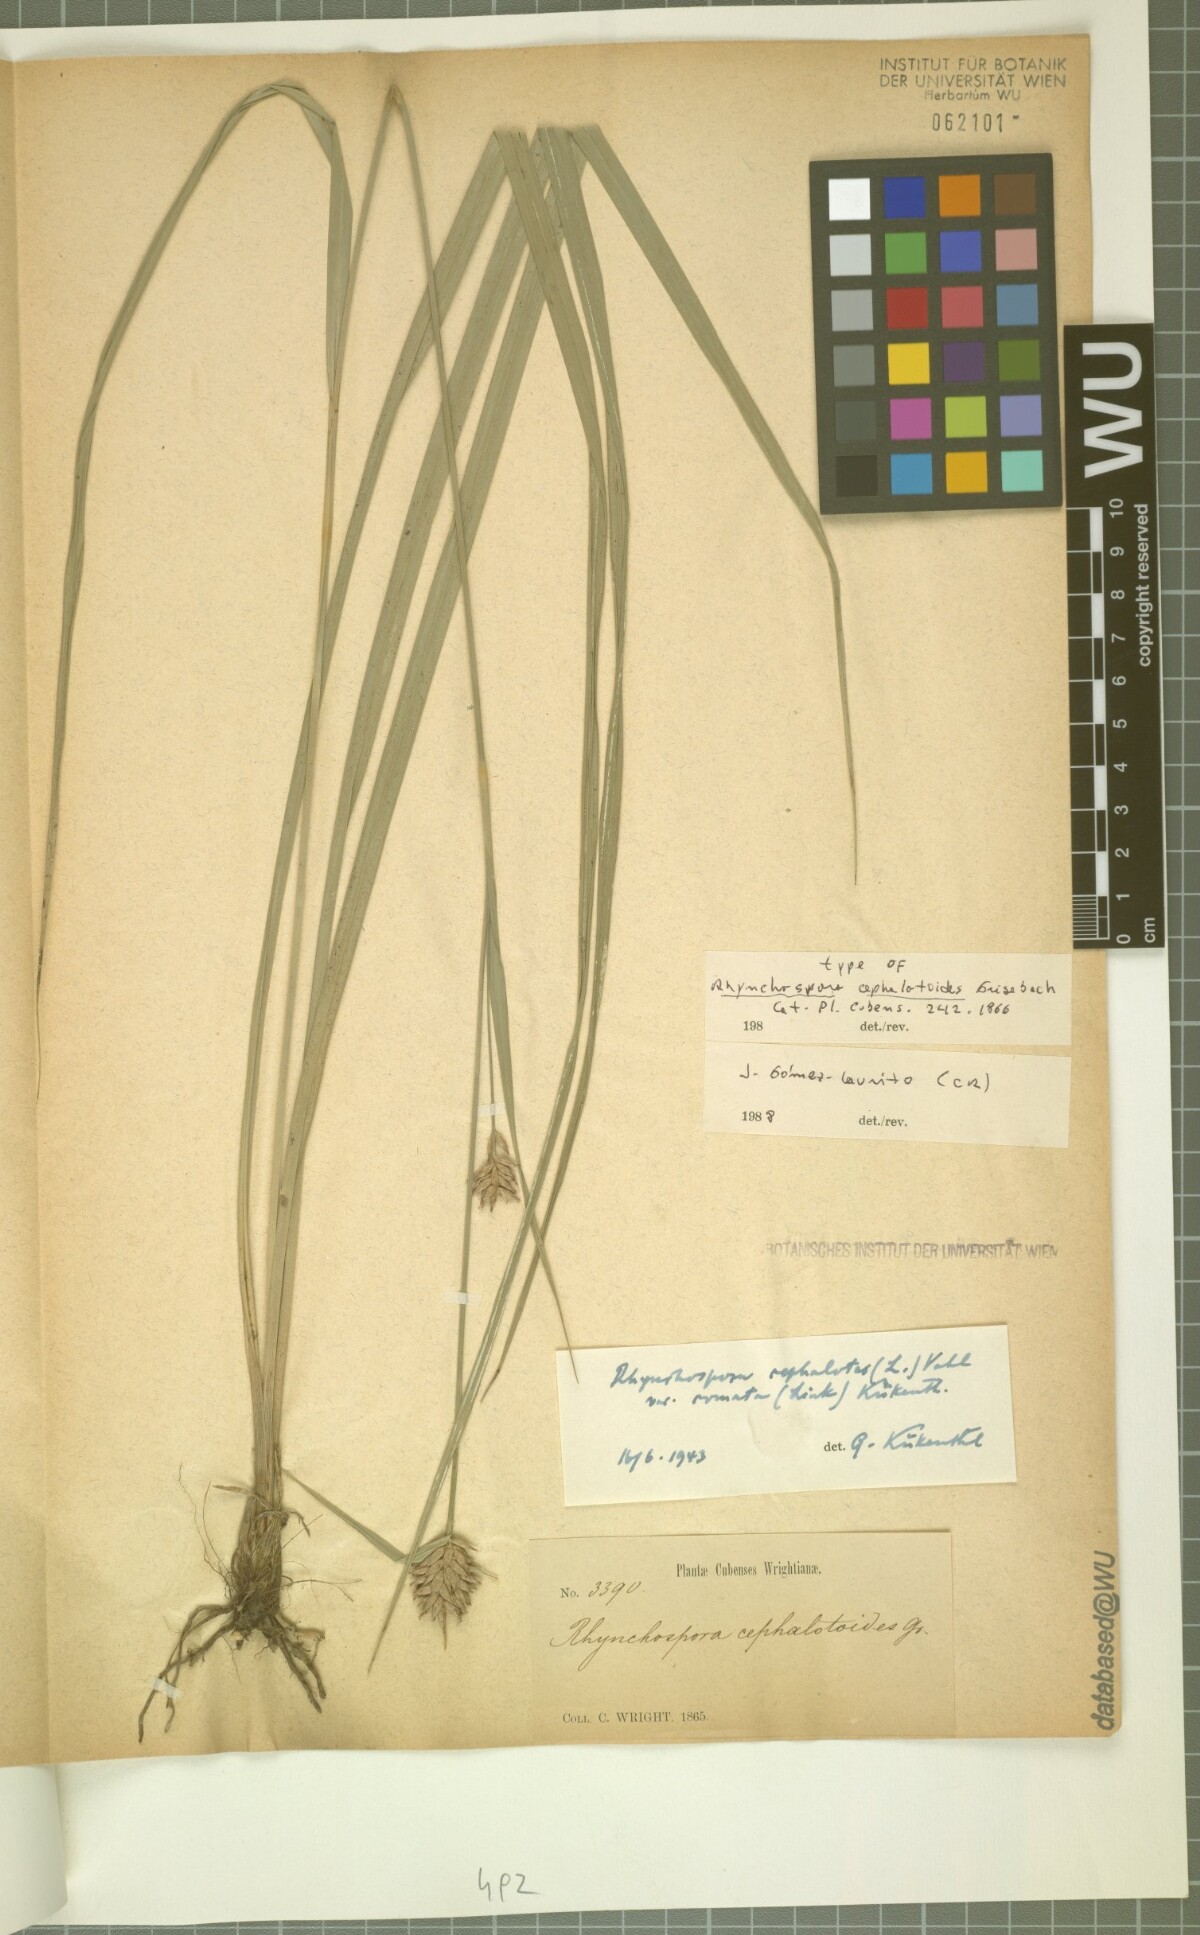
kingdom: Plantae
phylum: Tracheophyta
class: Liliopsida
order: Poales
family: Cyperaceae
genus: Rhynchospora
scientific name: Rhynchospora cephalotoides
